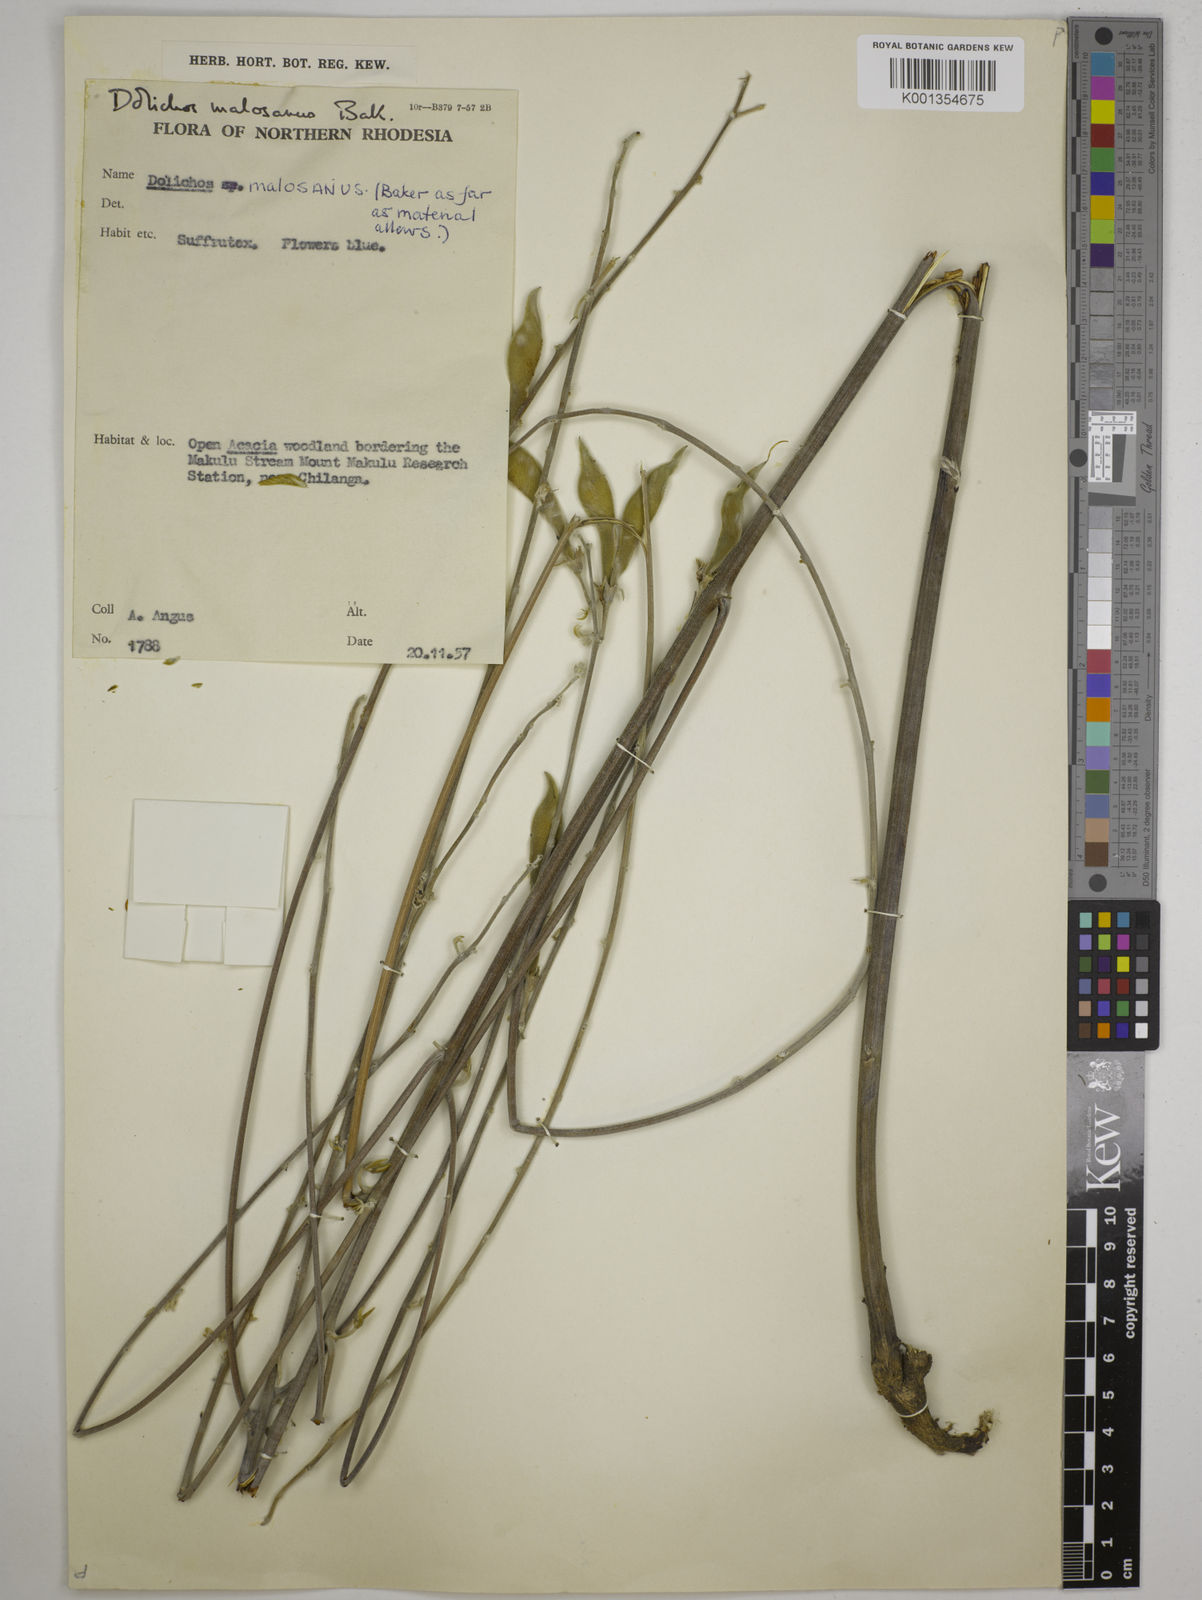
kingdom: Plantae
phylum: Tracheophyta
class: Magnoliopsida
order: Fabales
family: Fabaceae
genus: Dolichos
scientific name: Dolichos kilimandscharicus
